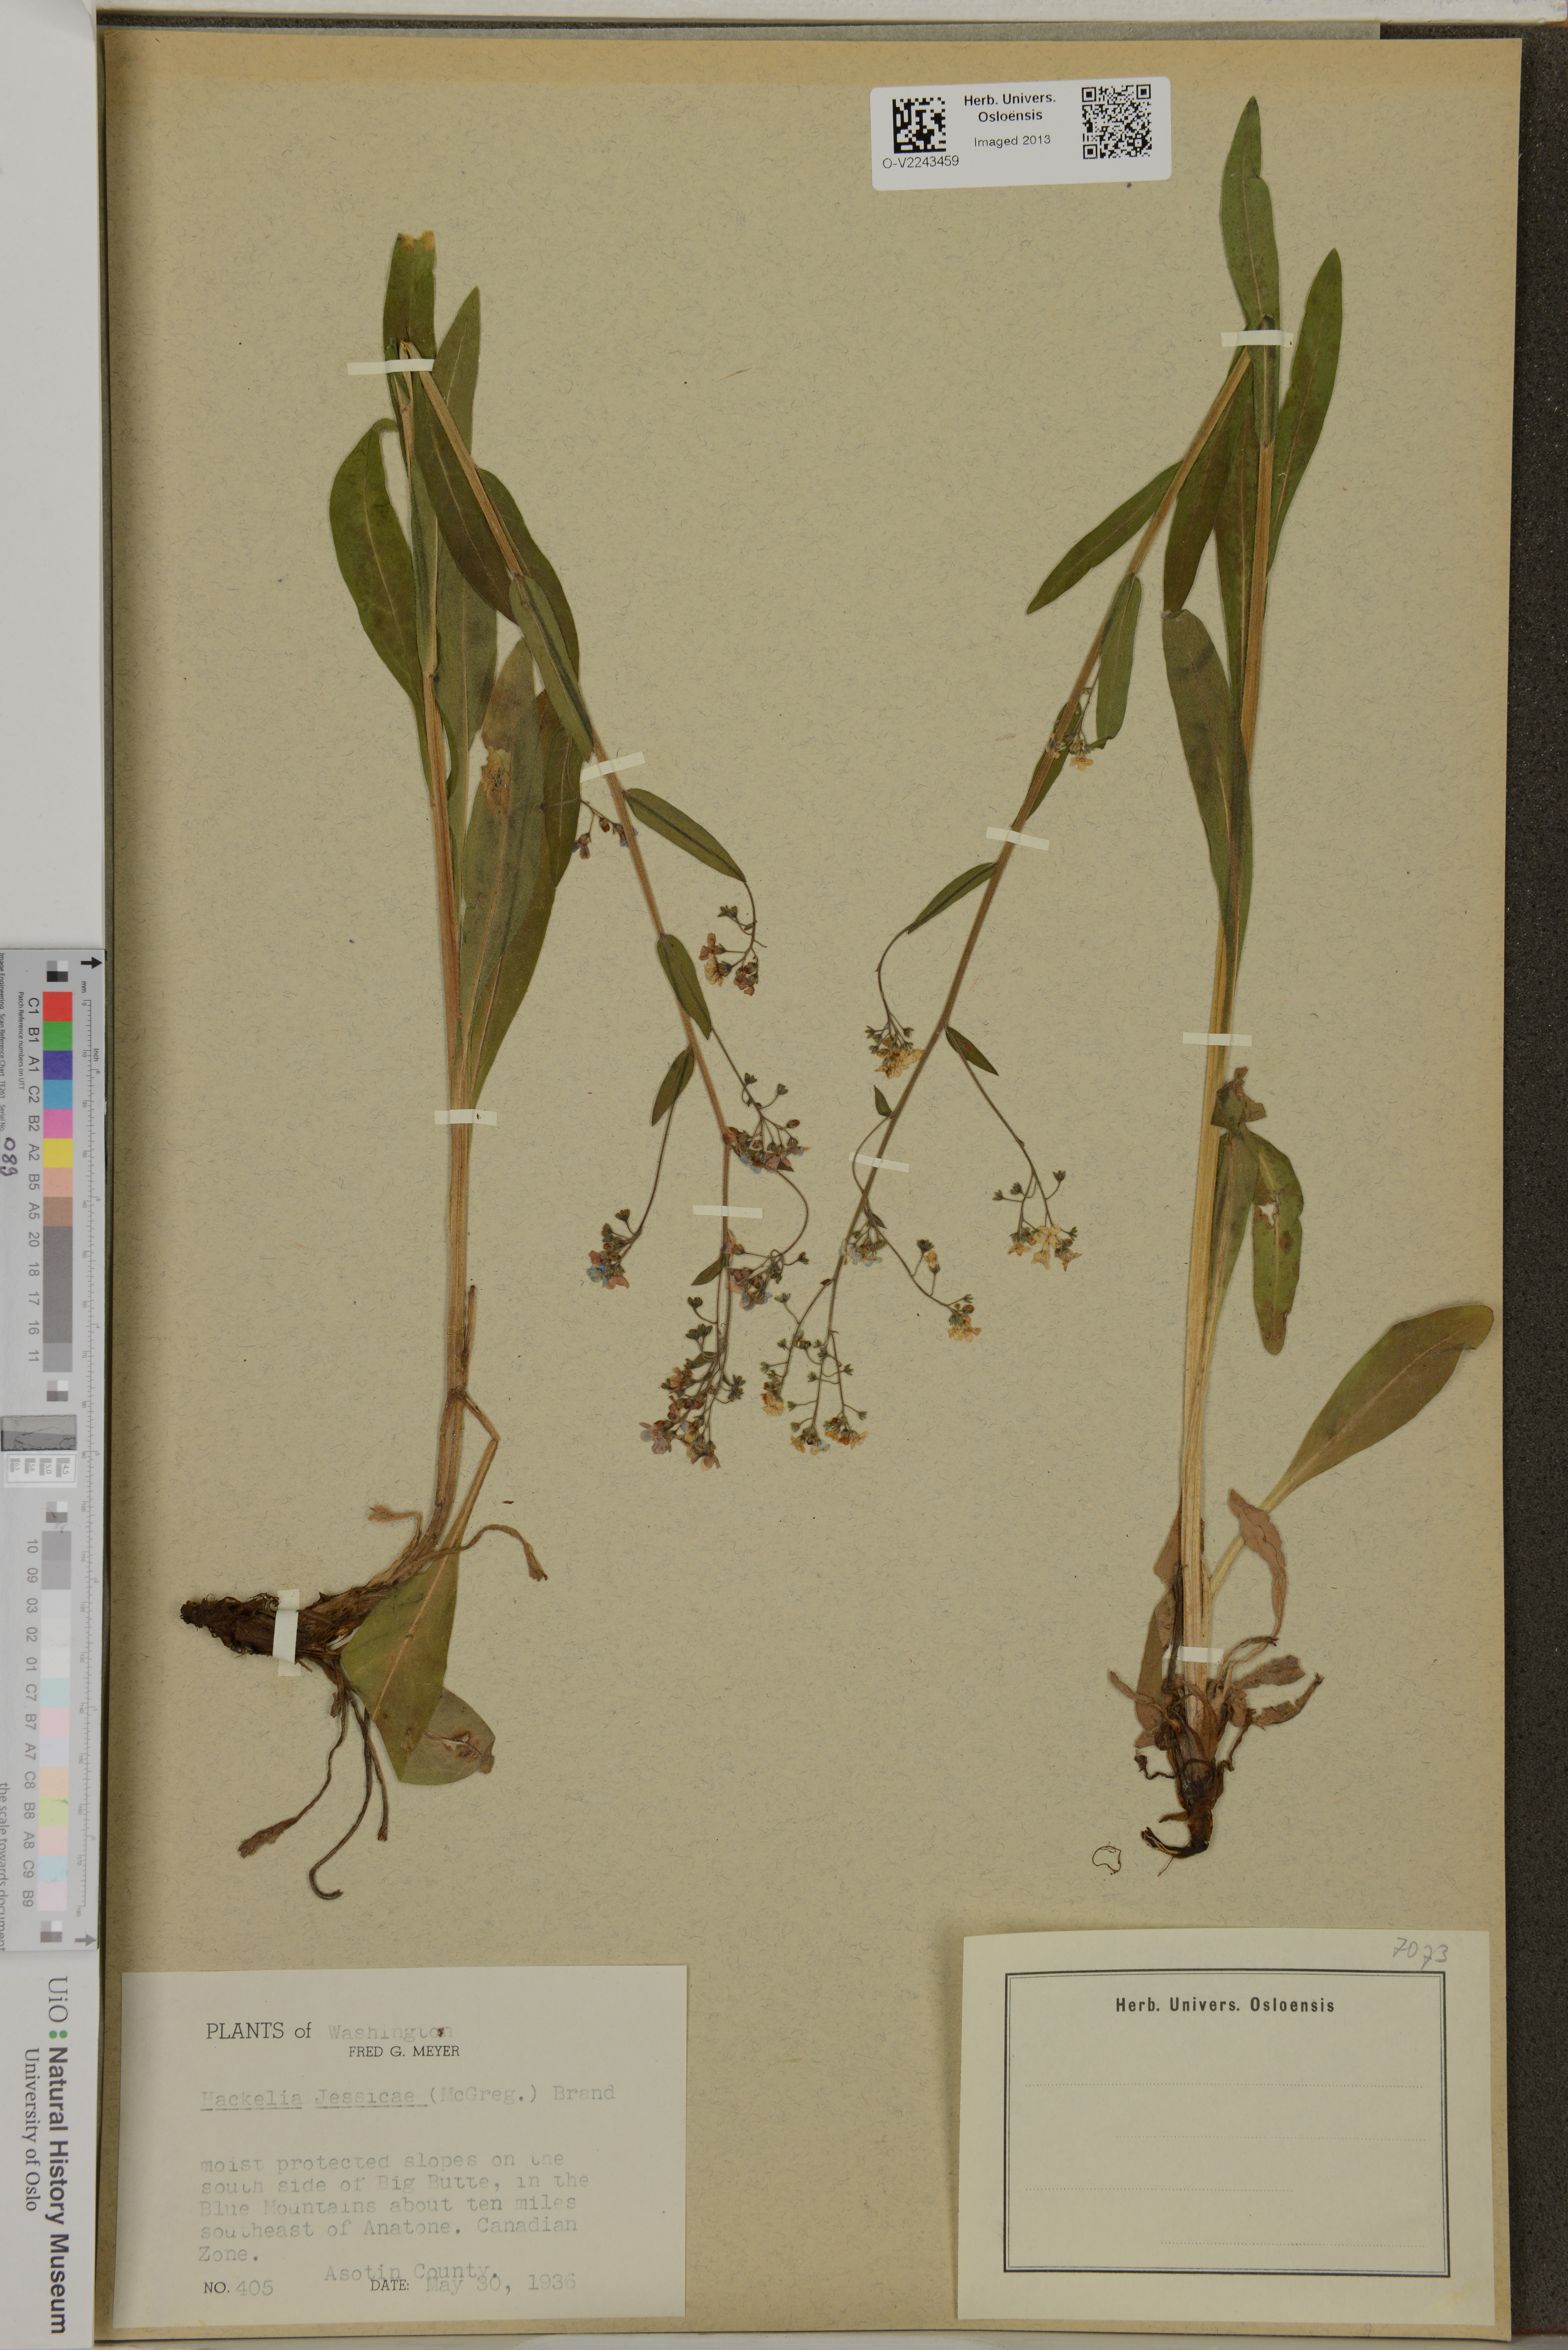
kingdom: Plantae
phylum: Tracheophyta
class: Magnoliopsida
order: Boraginales
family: Boraginaceae
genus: Hackelia
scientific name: Hackelia micrantha
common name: Meadow stickseed
